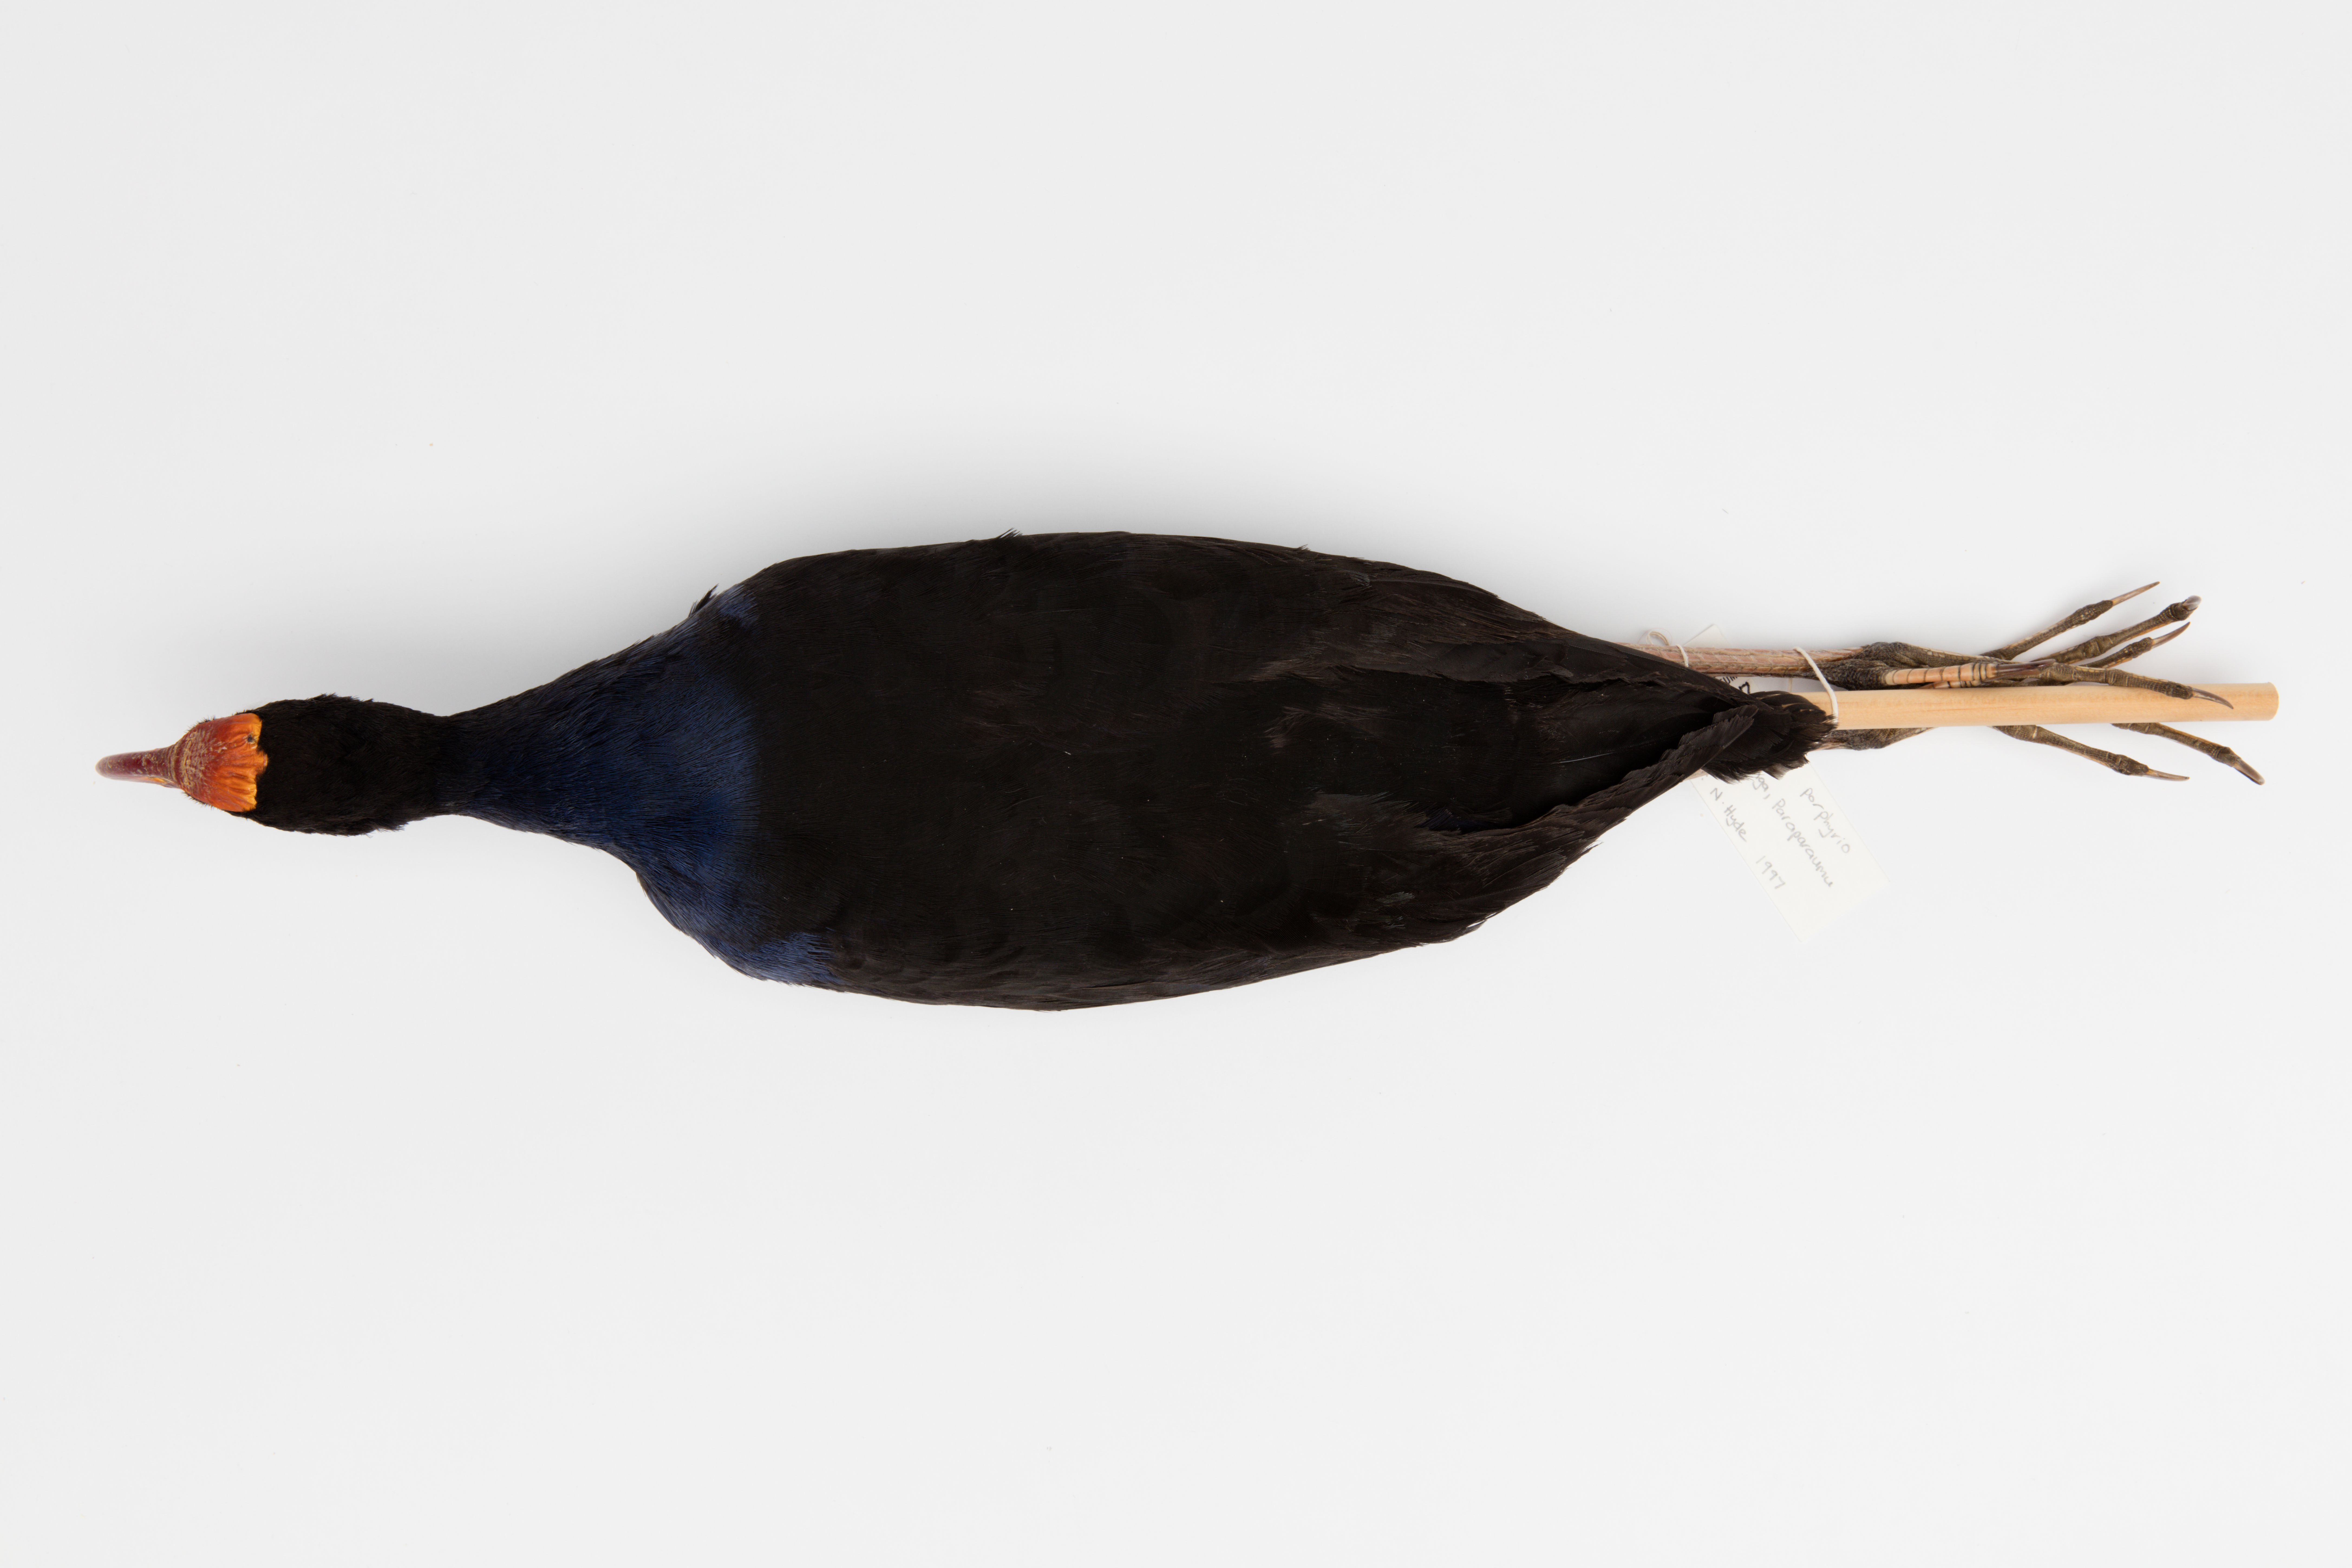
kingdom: Animalia
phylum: Chordata
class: Aves
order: Gruiformes
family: Rallidae
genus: Porphyrio
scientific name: Porphyrio melanotus
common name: Australasian swamphen
